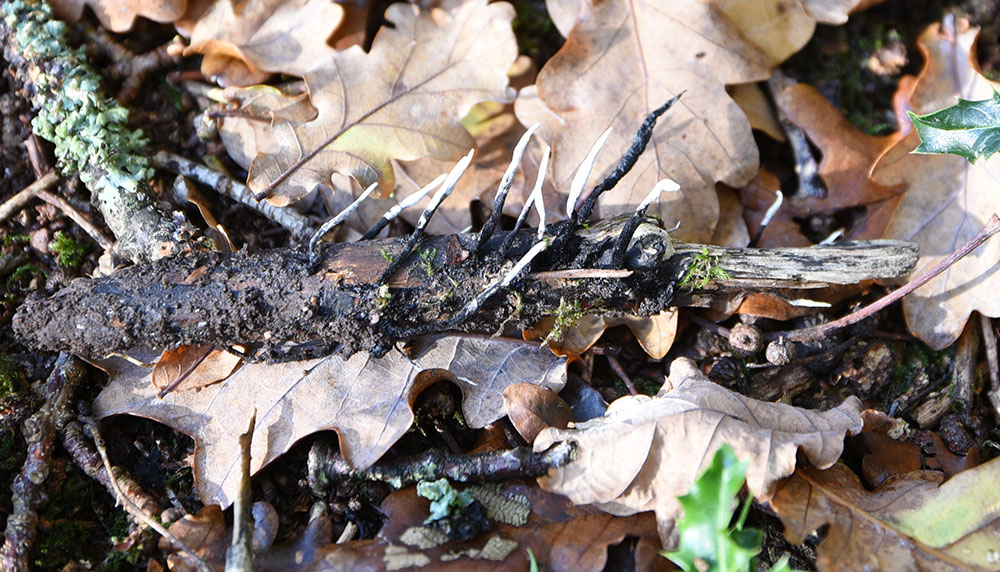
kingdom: Fungi
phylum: Ascomycota
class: Sordariomycetes
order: Xylariales
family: Xylariaceae
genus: Xylaria
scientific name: Xylaria hypoxylon
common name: Candle-snuff fungus
